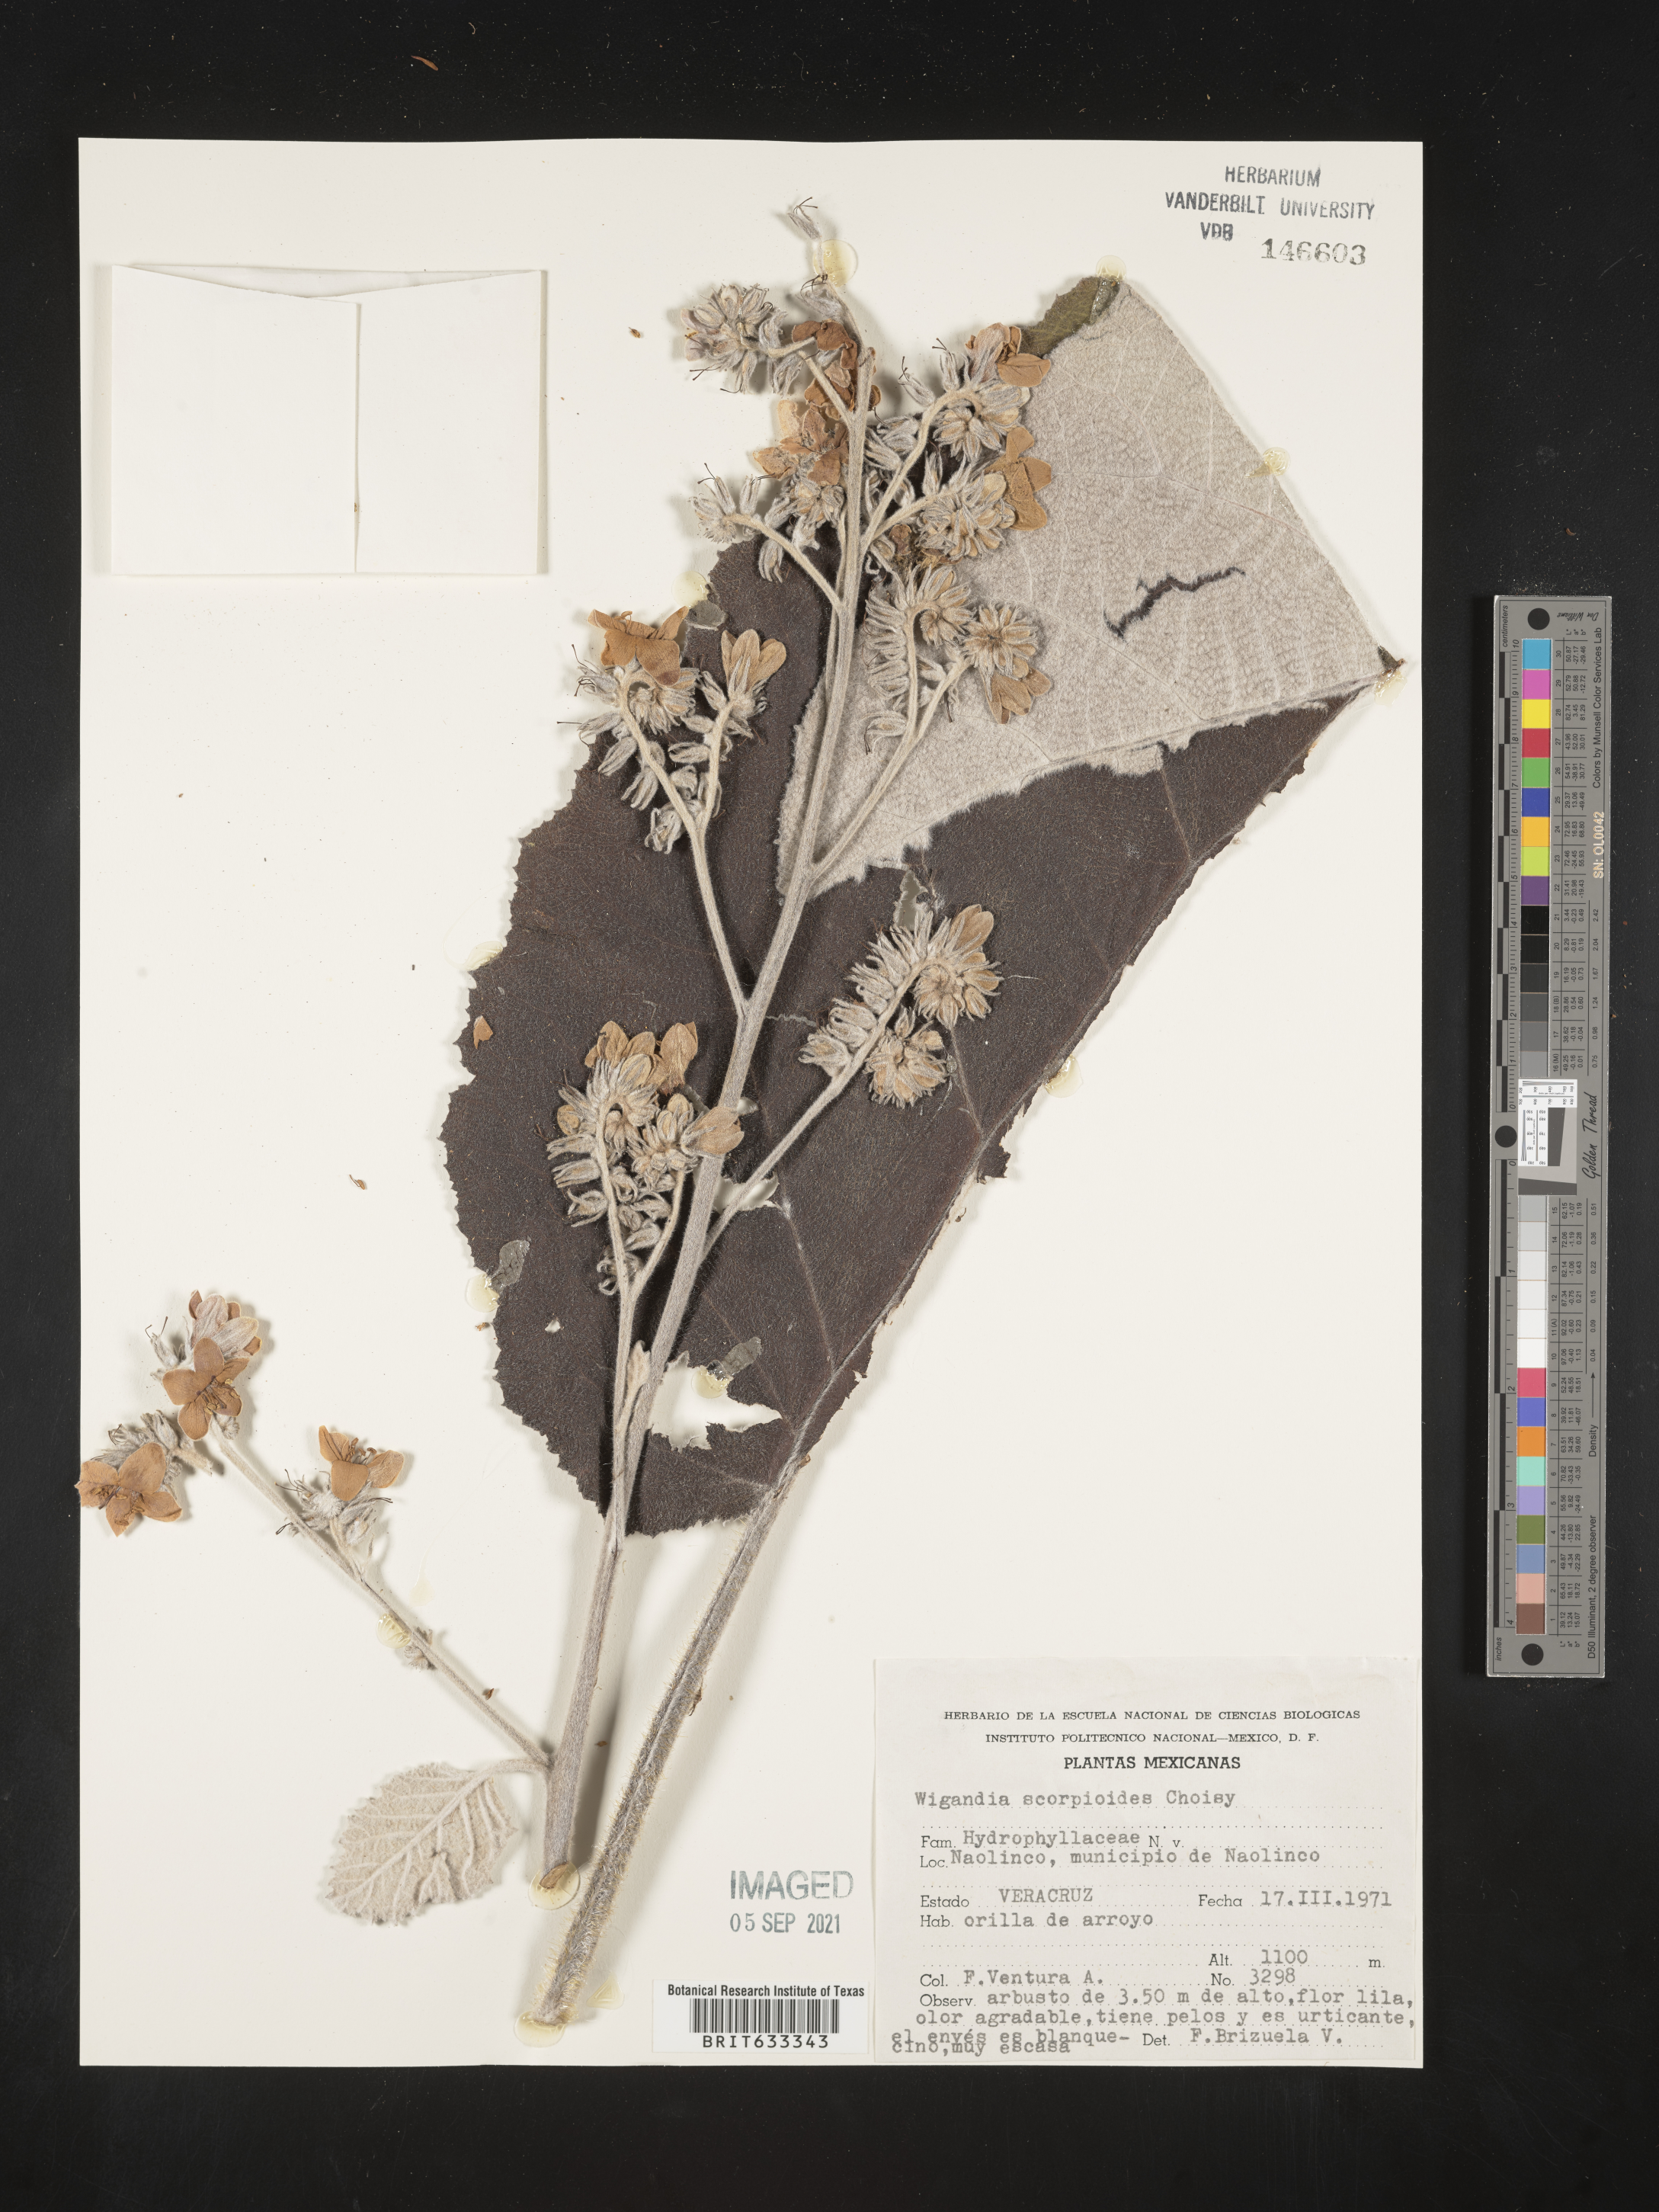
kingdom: Plantae
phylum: Tracheophyta
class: Magnoliopsida
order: Boraginales
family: Hydrophyllaceae
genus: Wiganda
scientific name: Wiganda
